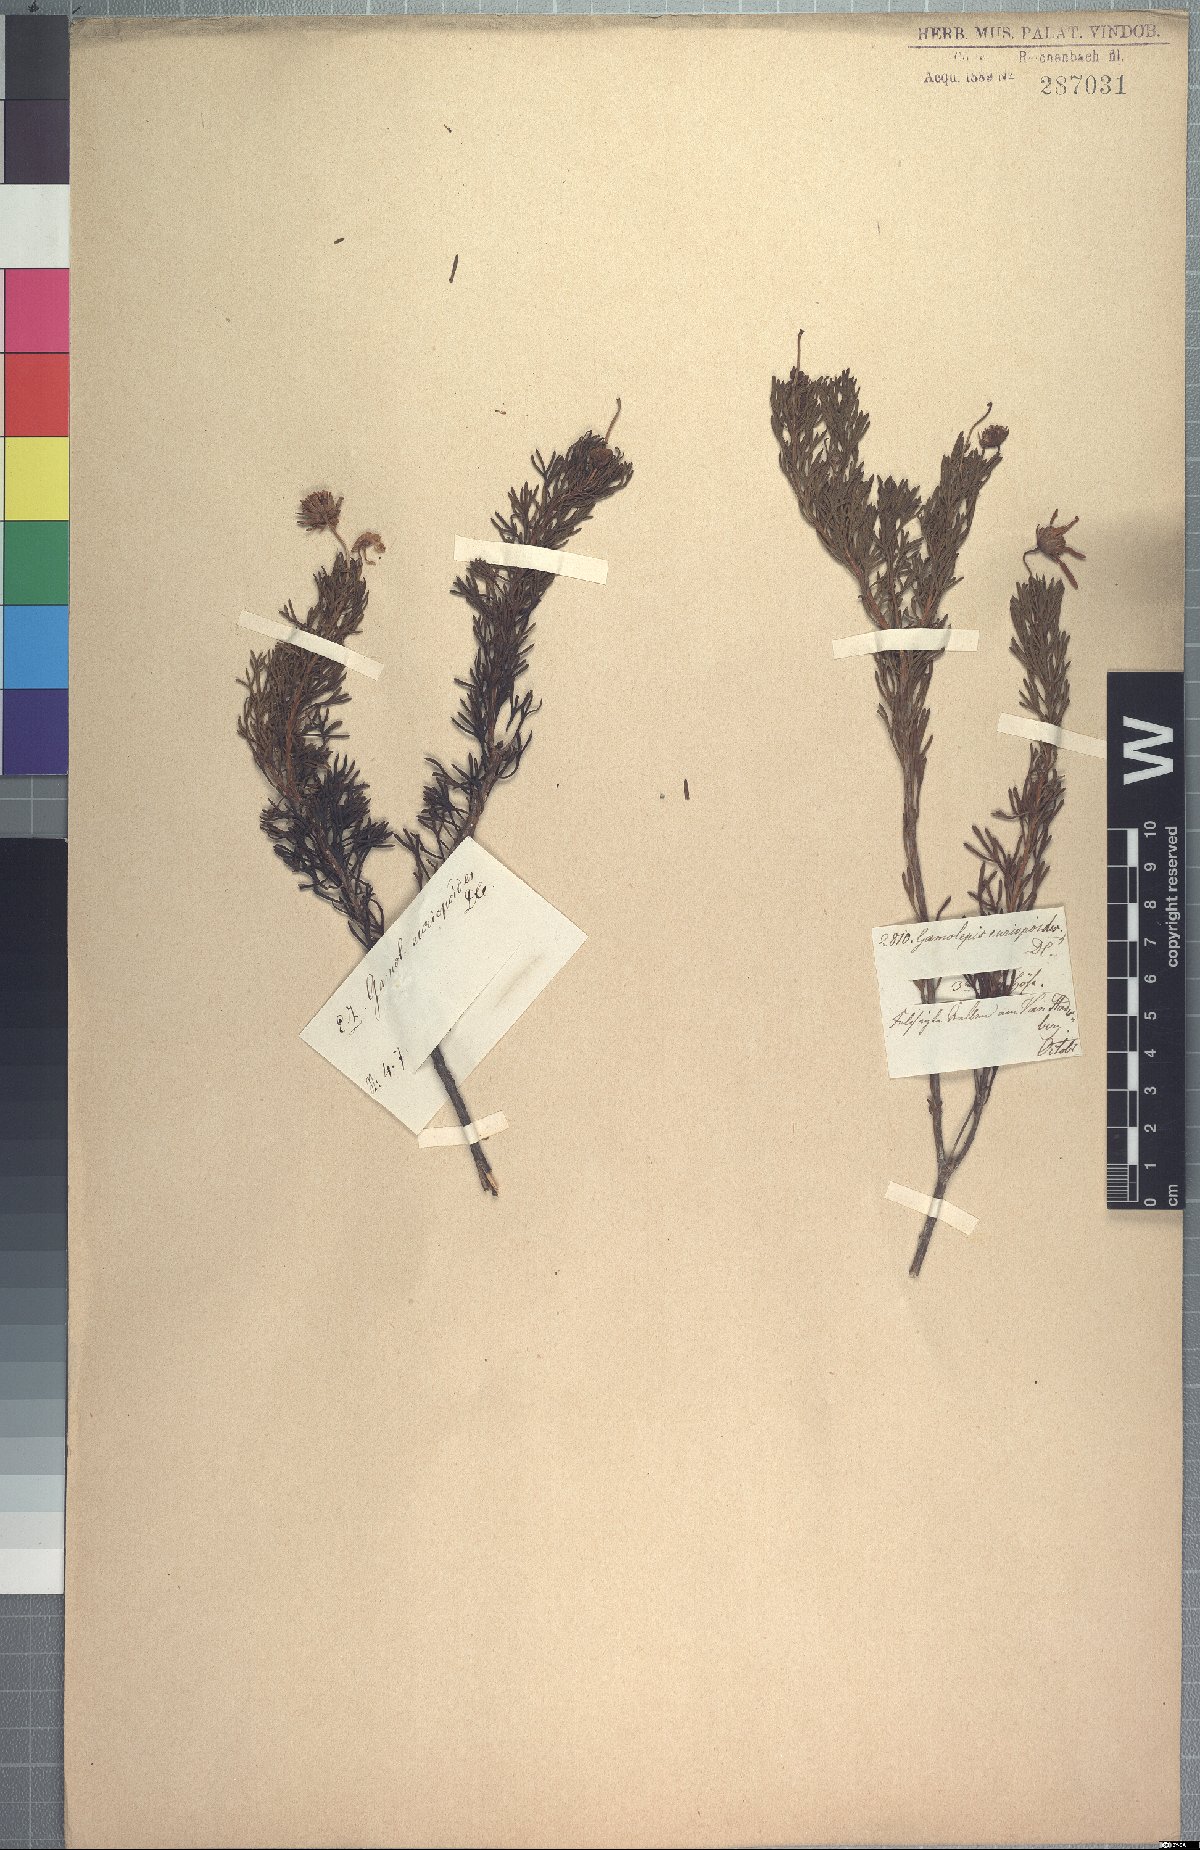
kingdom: Plantae
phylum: Tracheophyta
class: Magnoliopsida
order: Asterales
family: Asteraceae
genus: Euryops
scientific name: Euryops euryopoides
